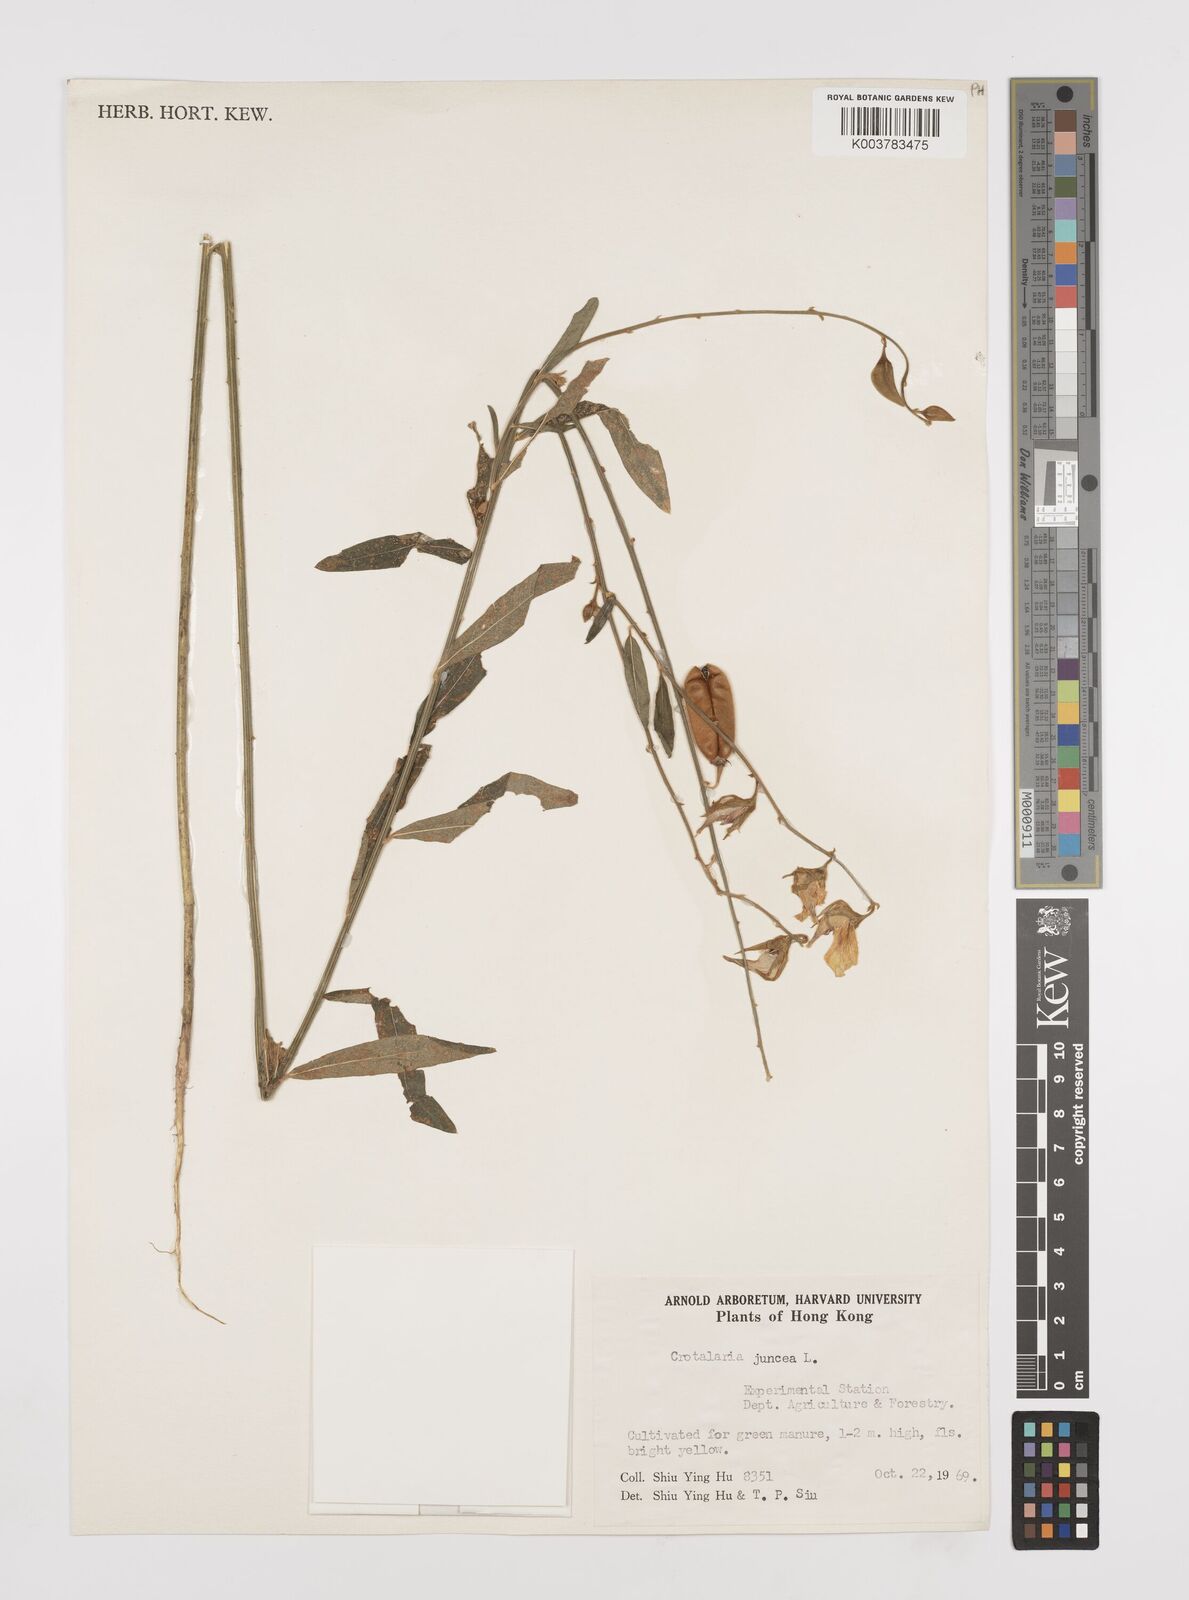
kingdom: Plantae
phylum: Tracheophyta
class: Magnoliopsida
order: Fabales
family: Fabaceae
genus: Crotalaria
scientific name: Crotalaria juncea
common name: Sunn hemp
